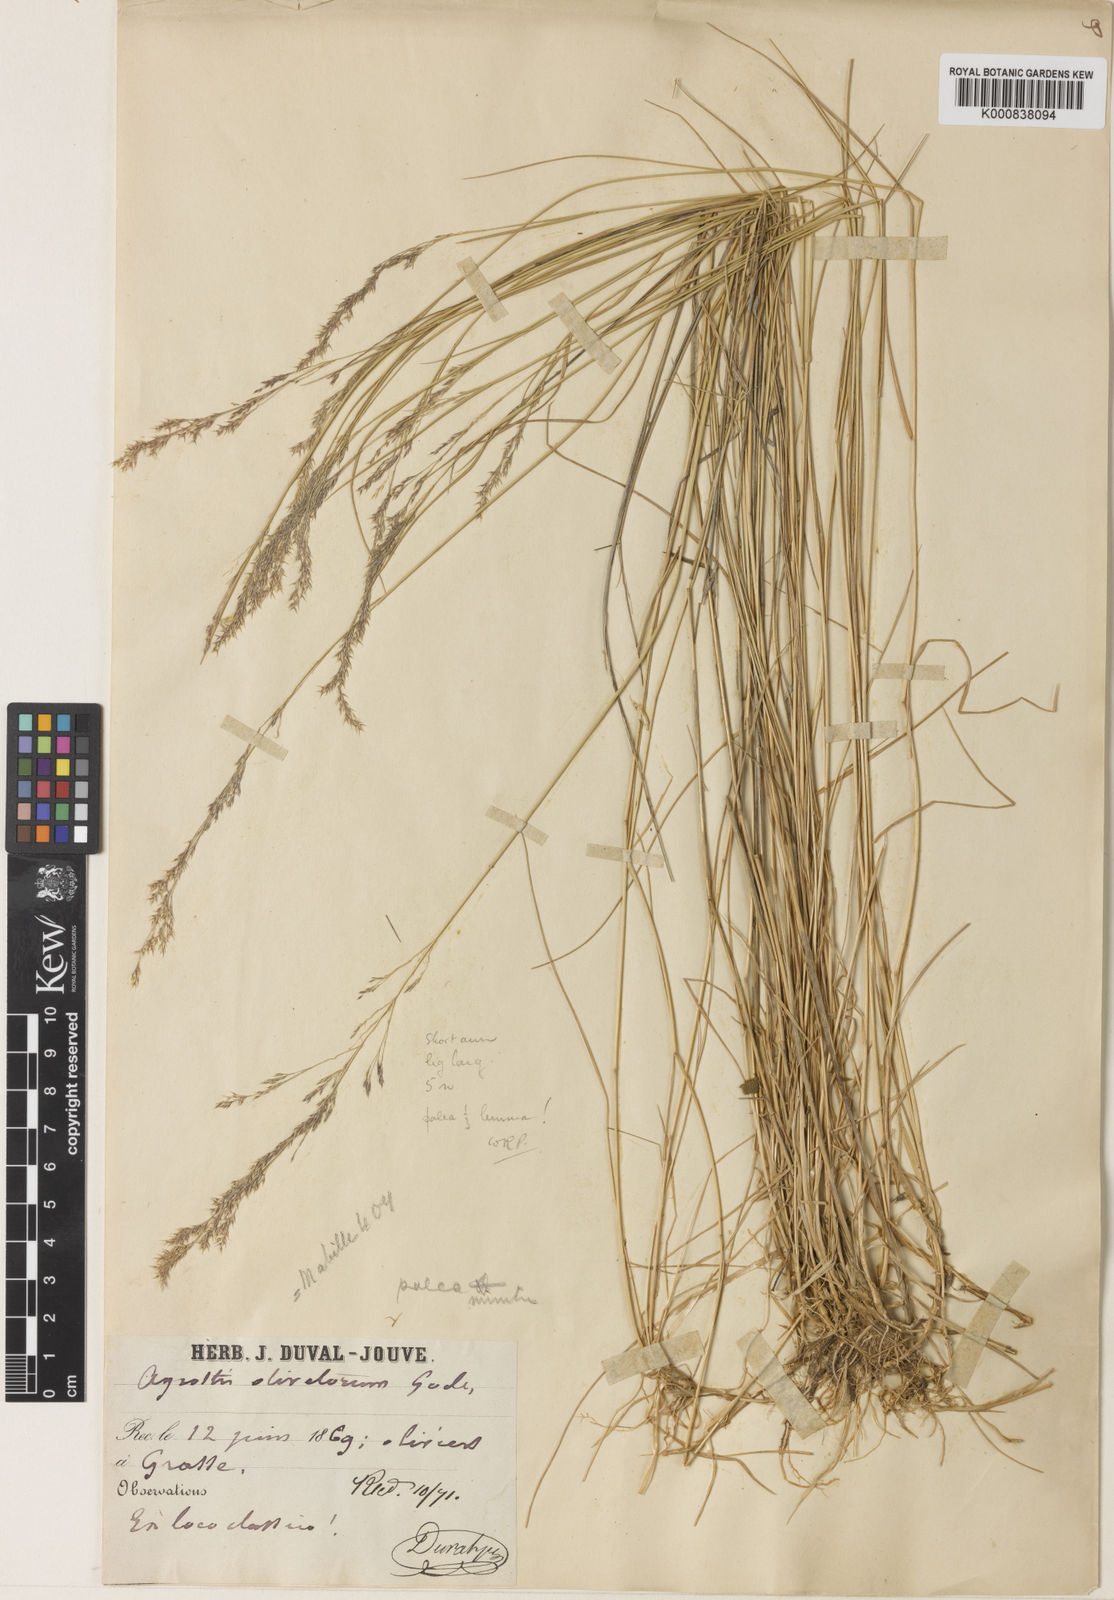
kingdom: Plantae
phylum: Tracheophyta
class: Liliopsida
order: Poales
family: Poaceae
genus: Agrostis
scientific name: Agrostis castellana
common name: Highland bent
